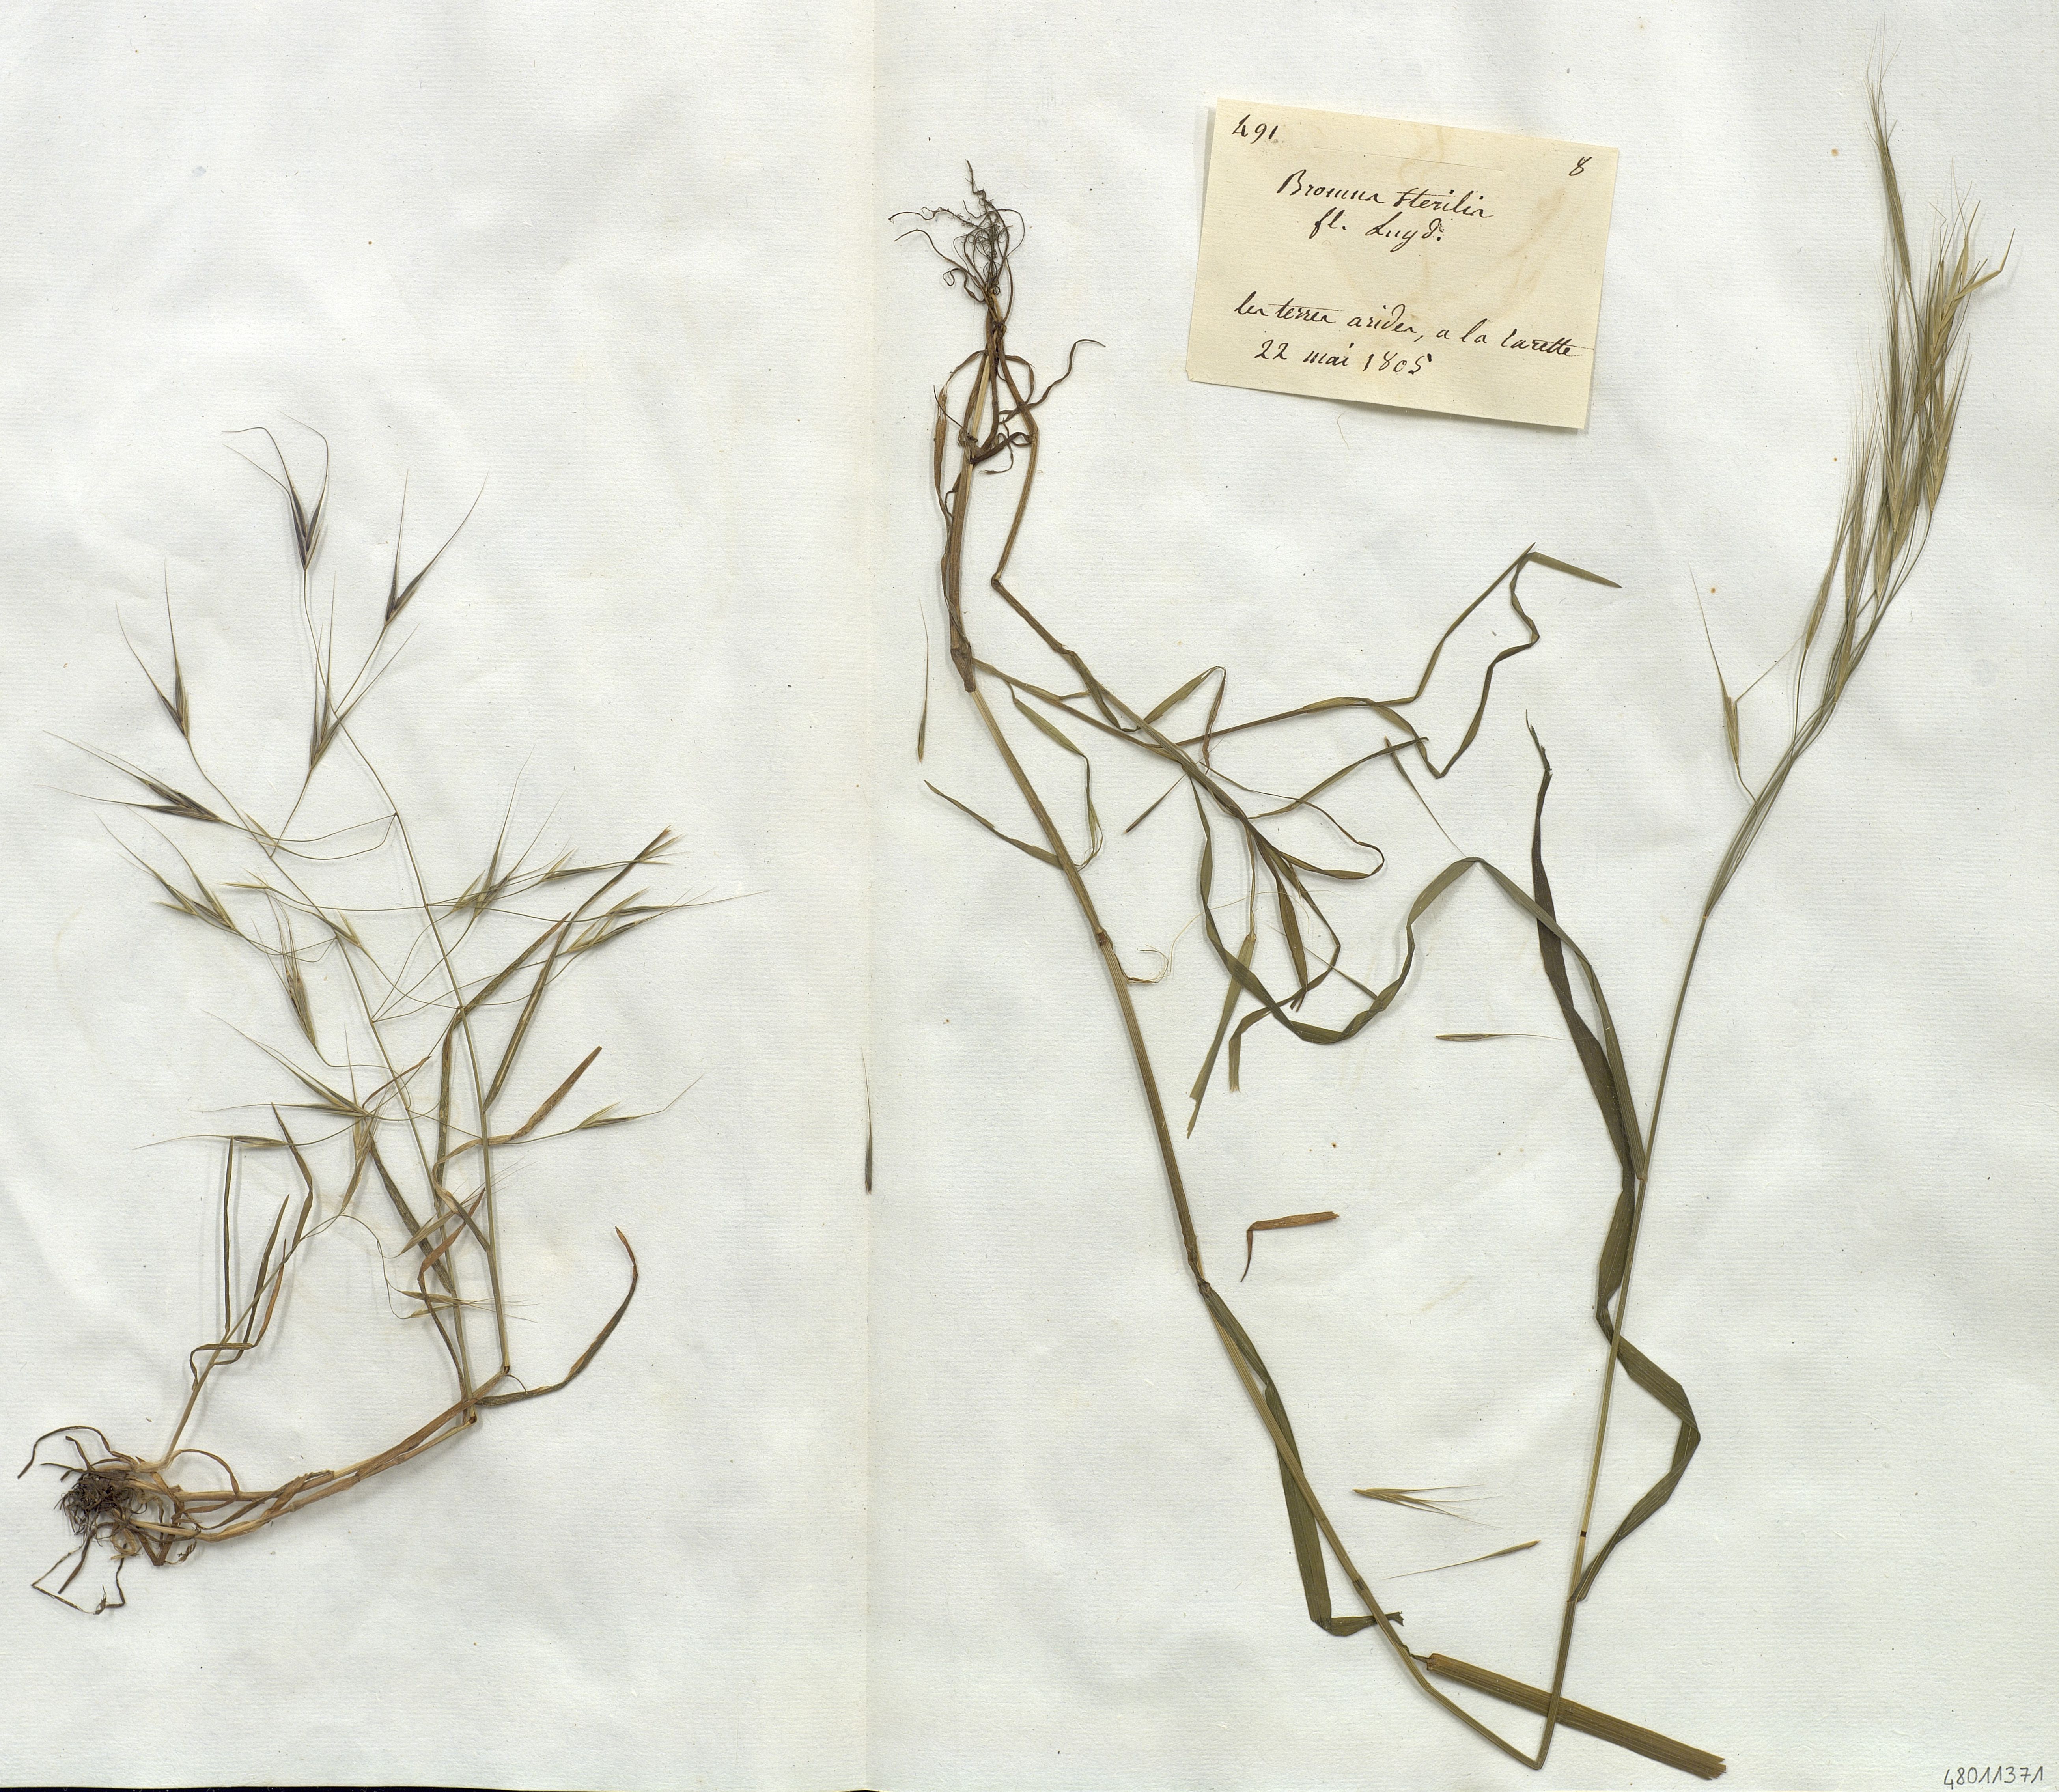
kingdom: Plantae
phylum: Tracheophyta
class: Liliopsida
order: Poales
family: Poaceae
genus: Bromus
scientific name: Bromus sterilis
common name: Poverty brome
